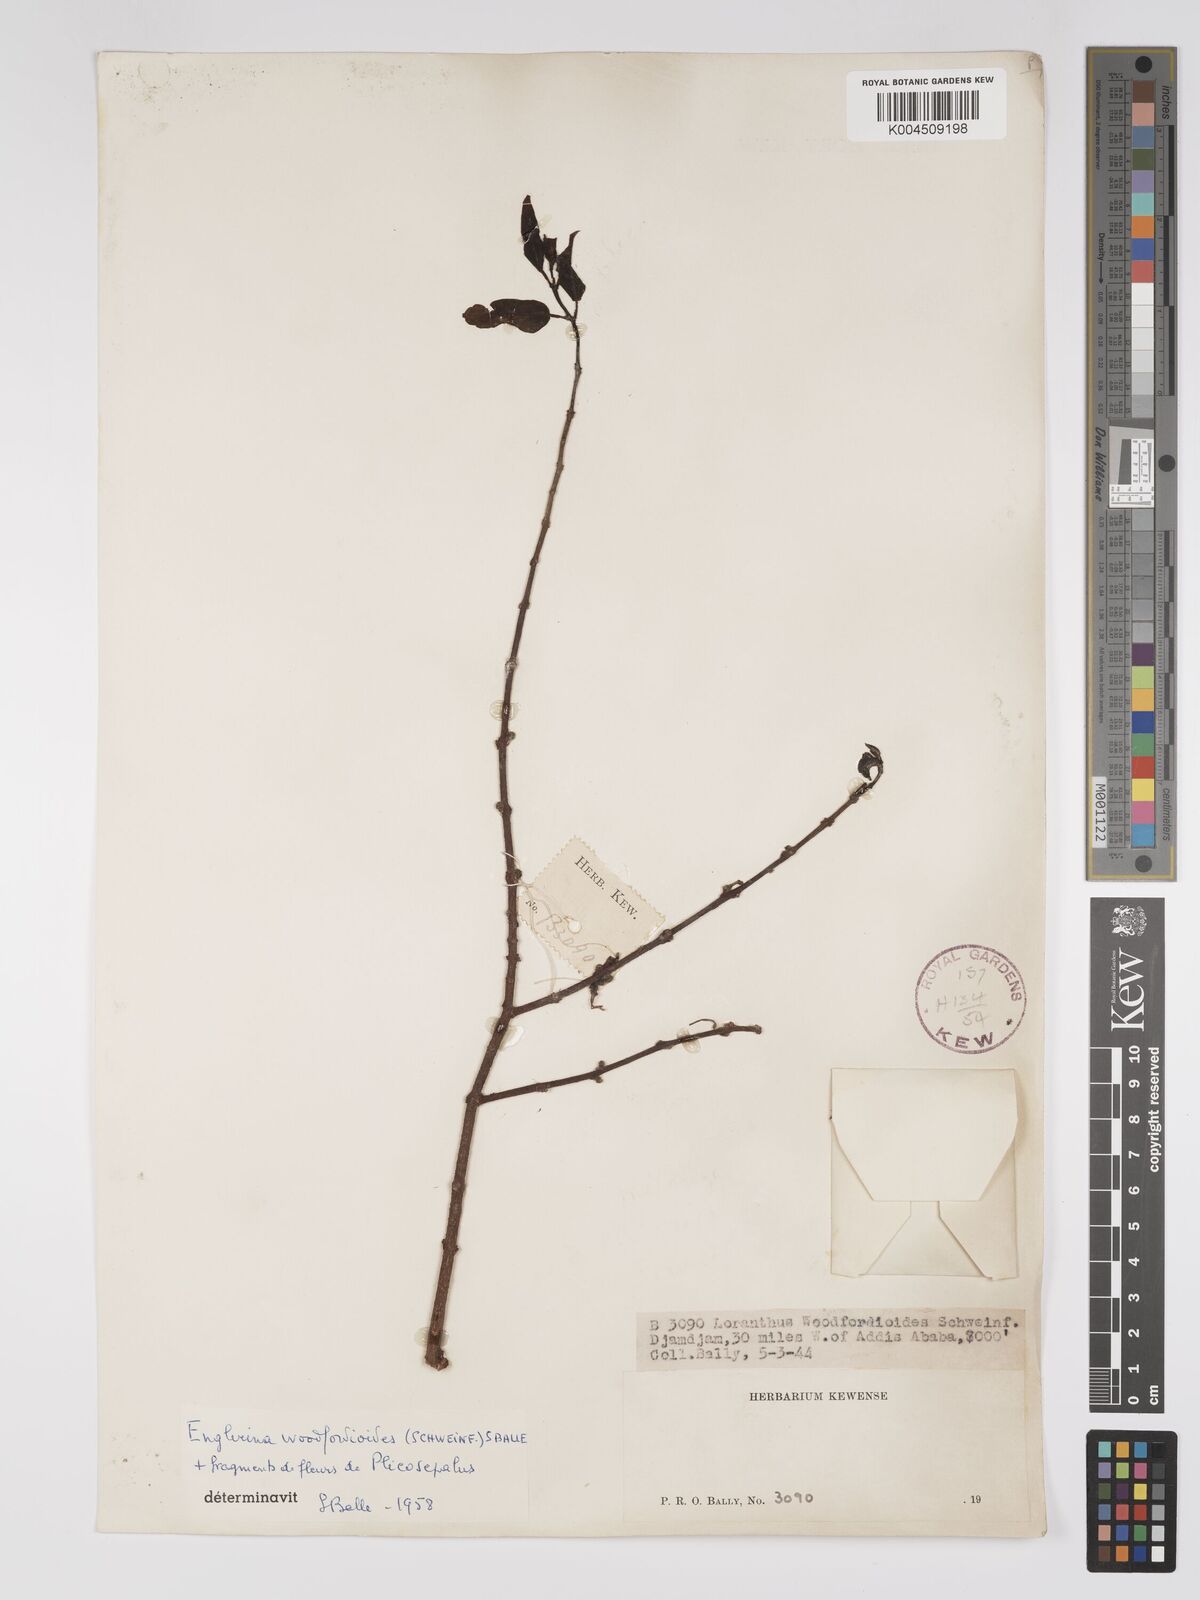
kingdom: Plantae
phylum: Tracheophyta
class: Magnoliopsida
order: Santalales
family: Loranthaceae
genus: Englerina
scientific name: Englerina woodfordioides
